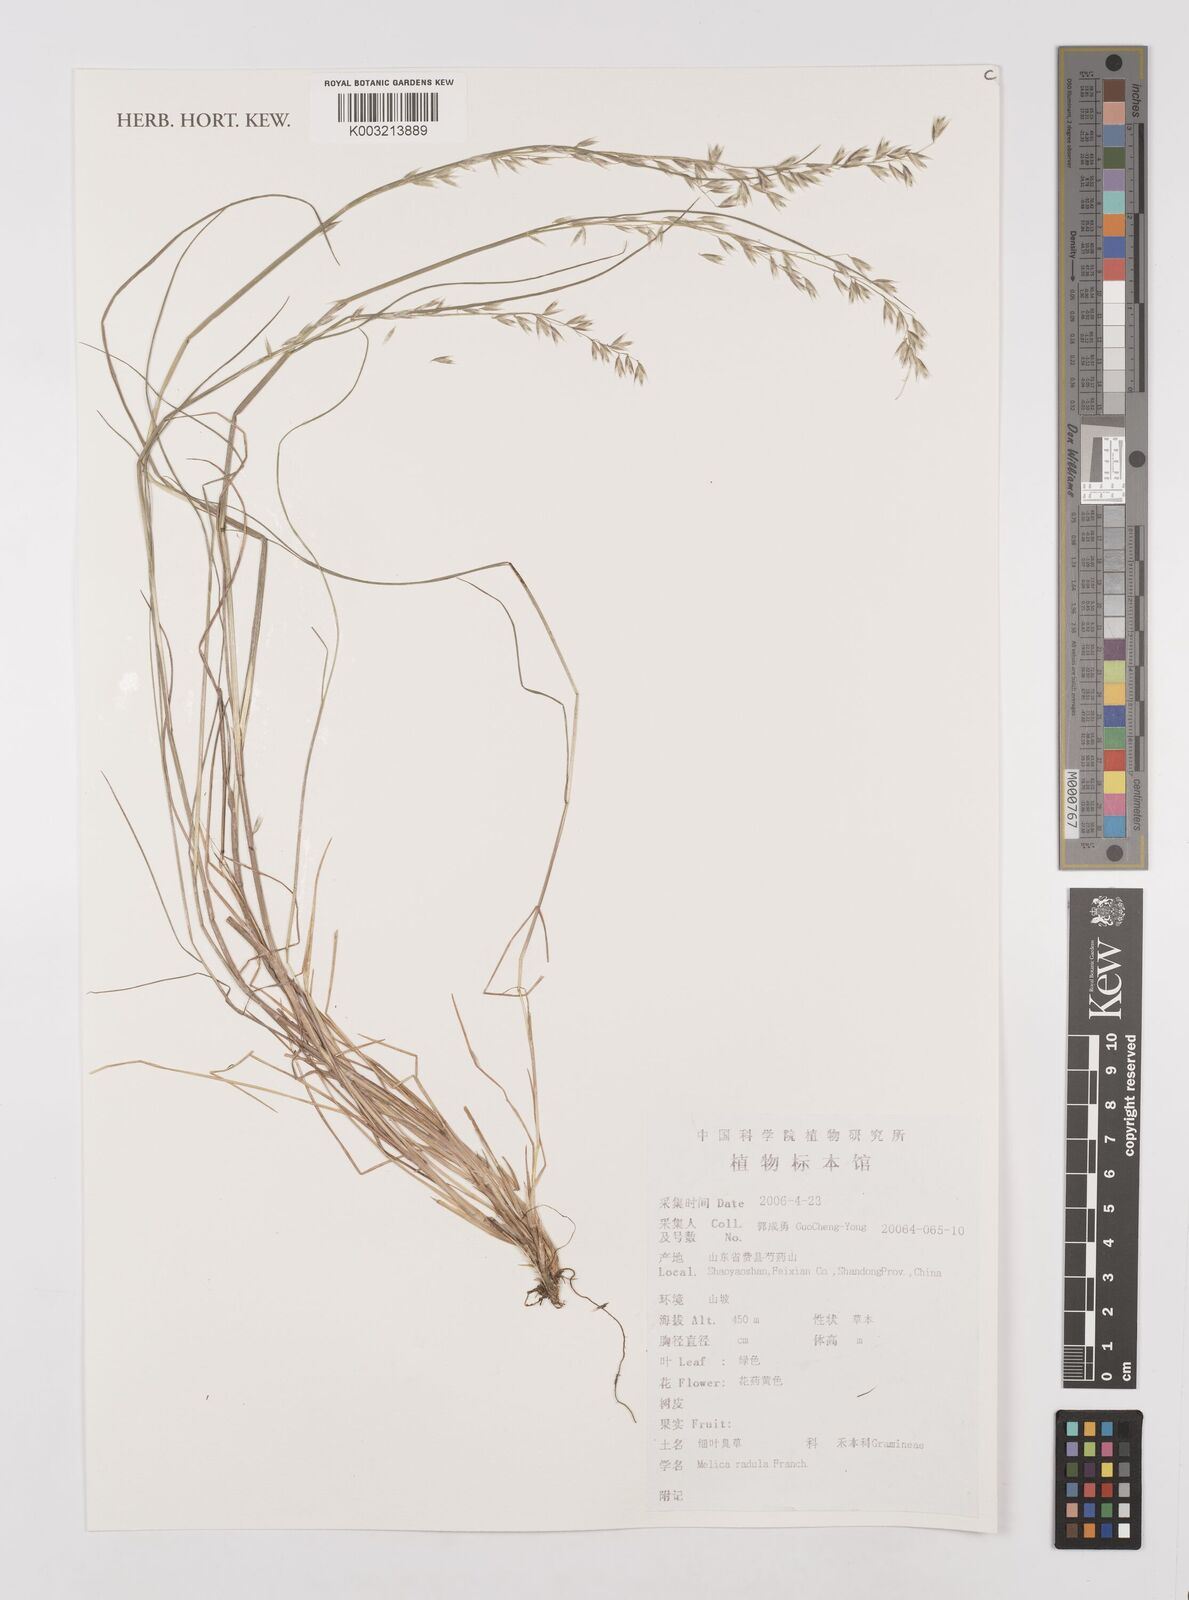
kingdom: Plantae
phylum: Tracheophyta
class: Liliopsida
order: Poales
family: Poaceae
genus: Melica
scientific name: Melica radula
